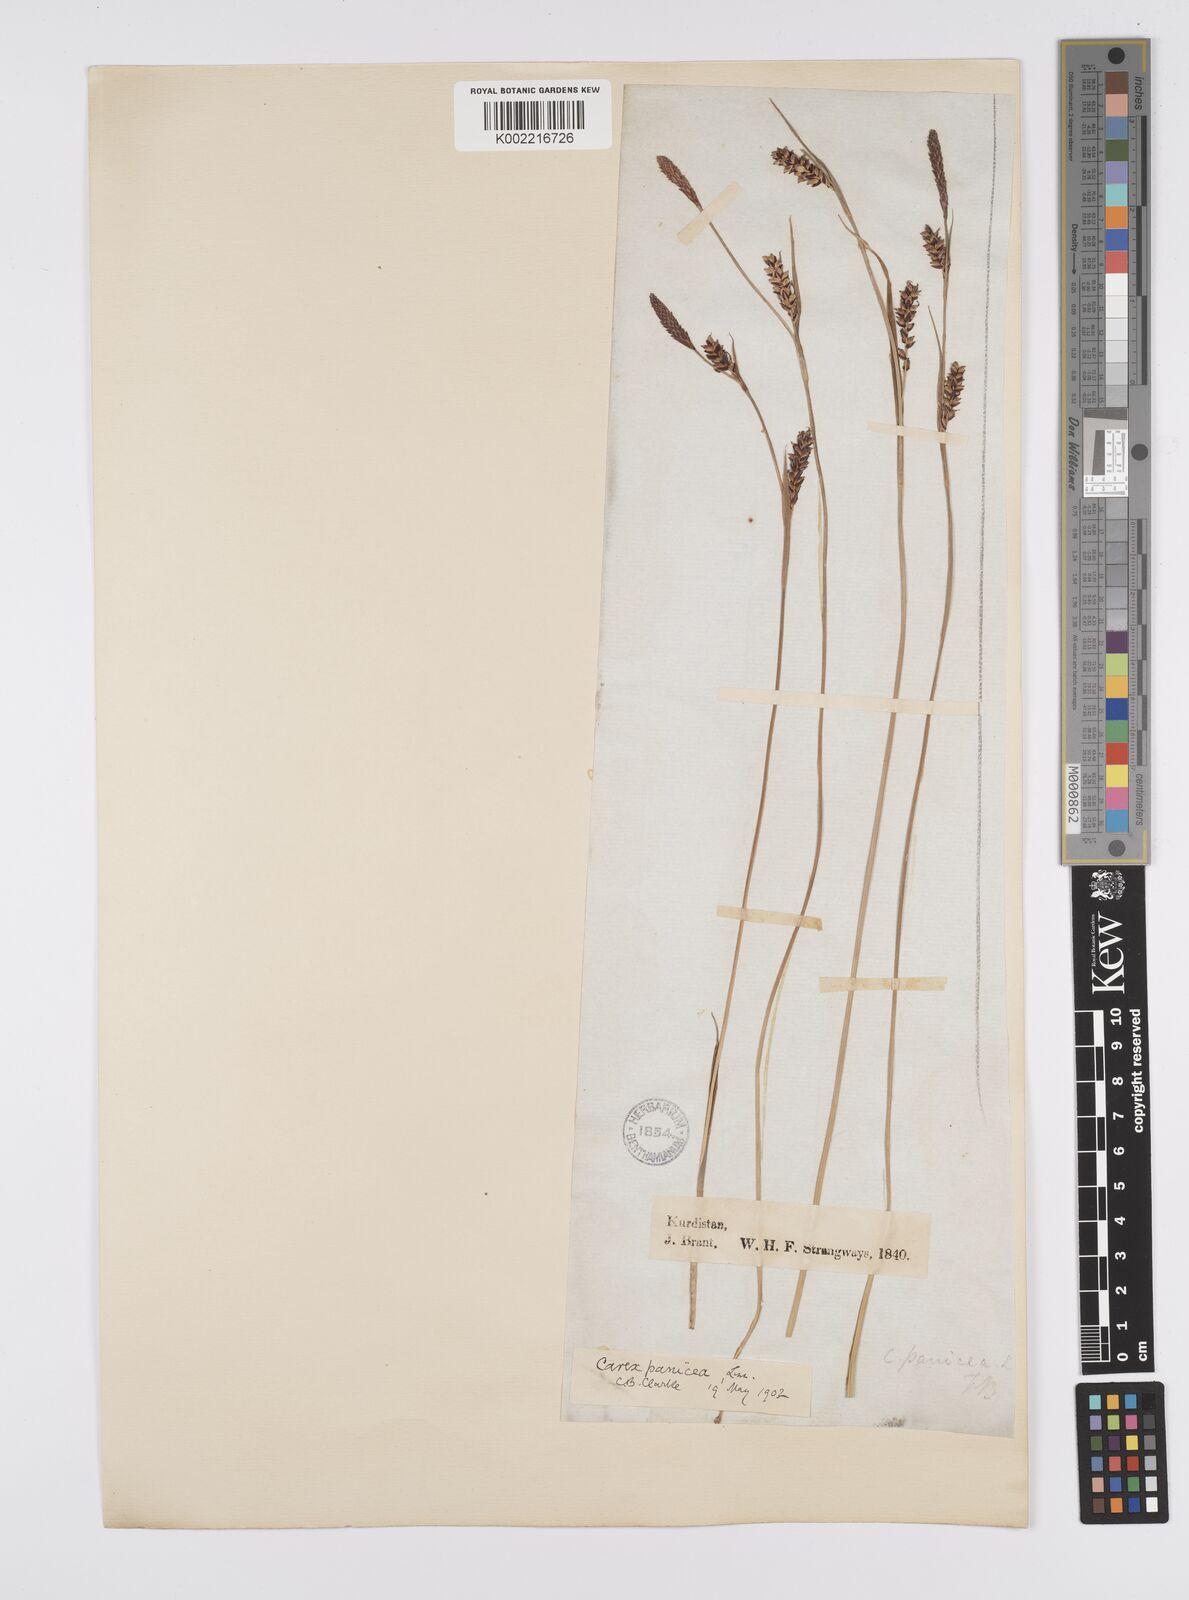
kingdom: Plantae
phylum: Tracheophyta
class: Liliopsida
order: Poales
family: Cyperaceae
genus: Carex
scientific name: Carex panicea
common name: Carnation sedge
